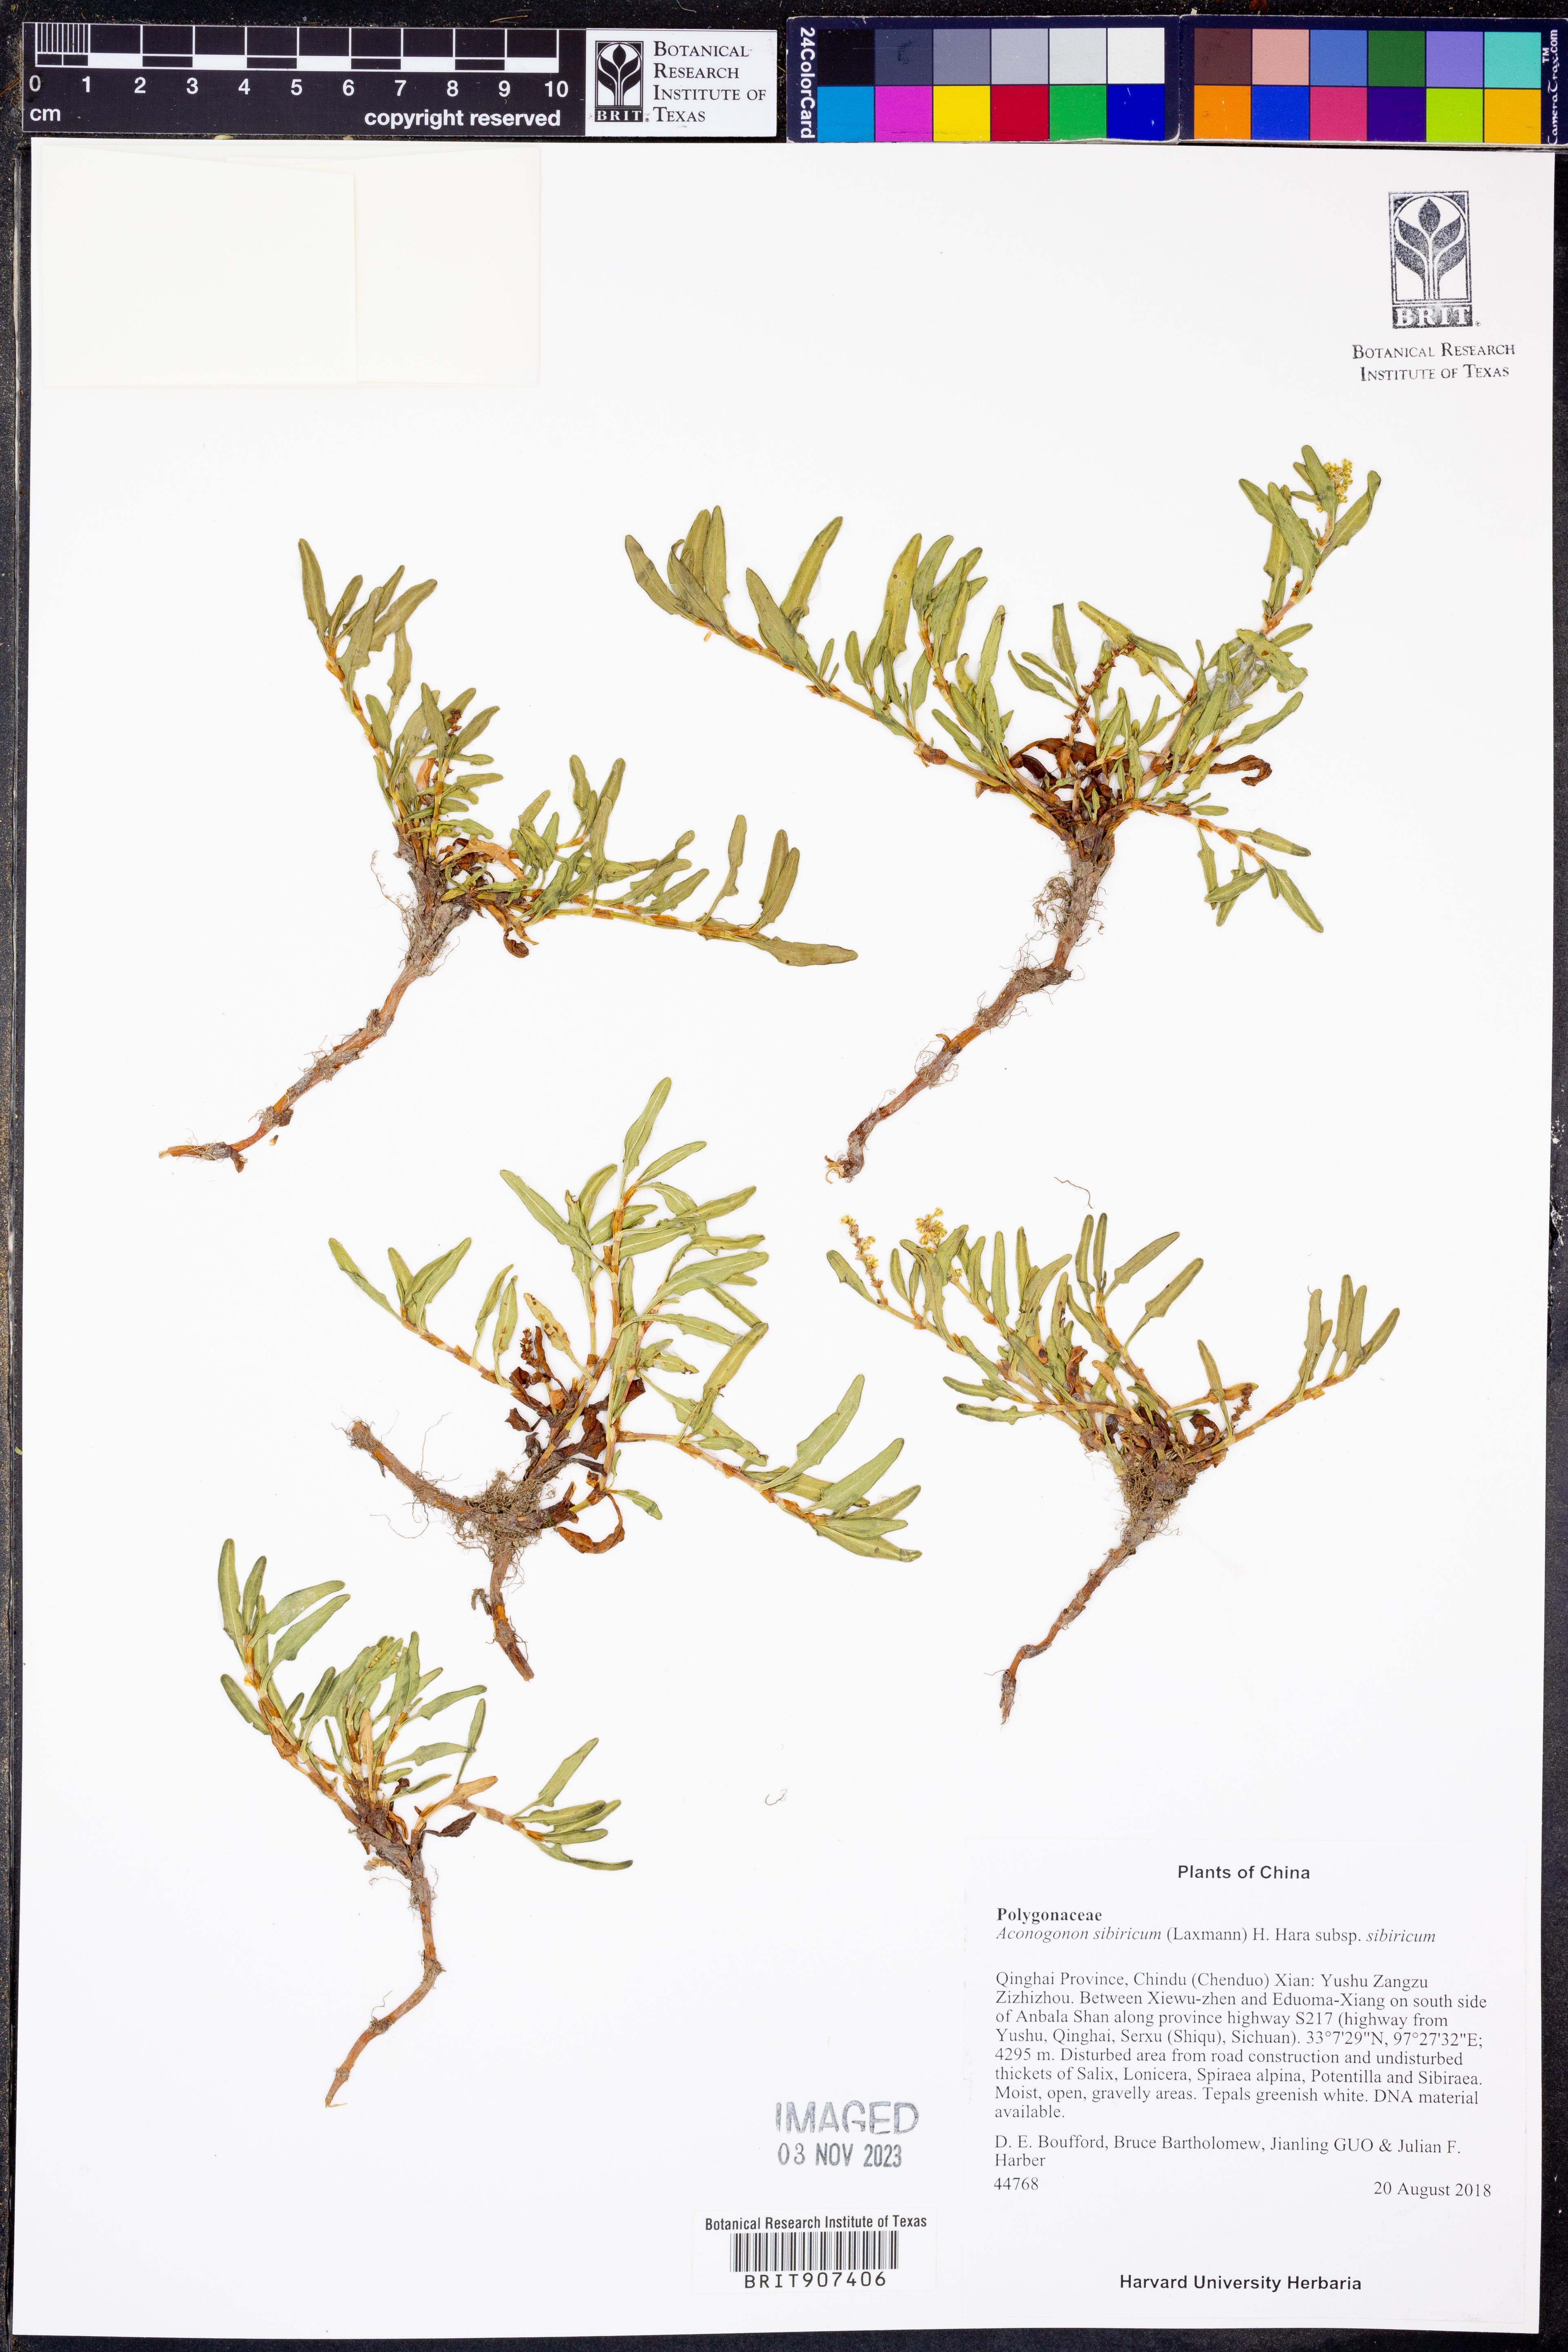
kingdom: Plantae
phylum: Tracheophyta
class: Magnoliopsida
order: Caryophyllales
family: Polygonaceae
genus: Knorringia
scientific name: Knorringia sibirica
